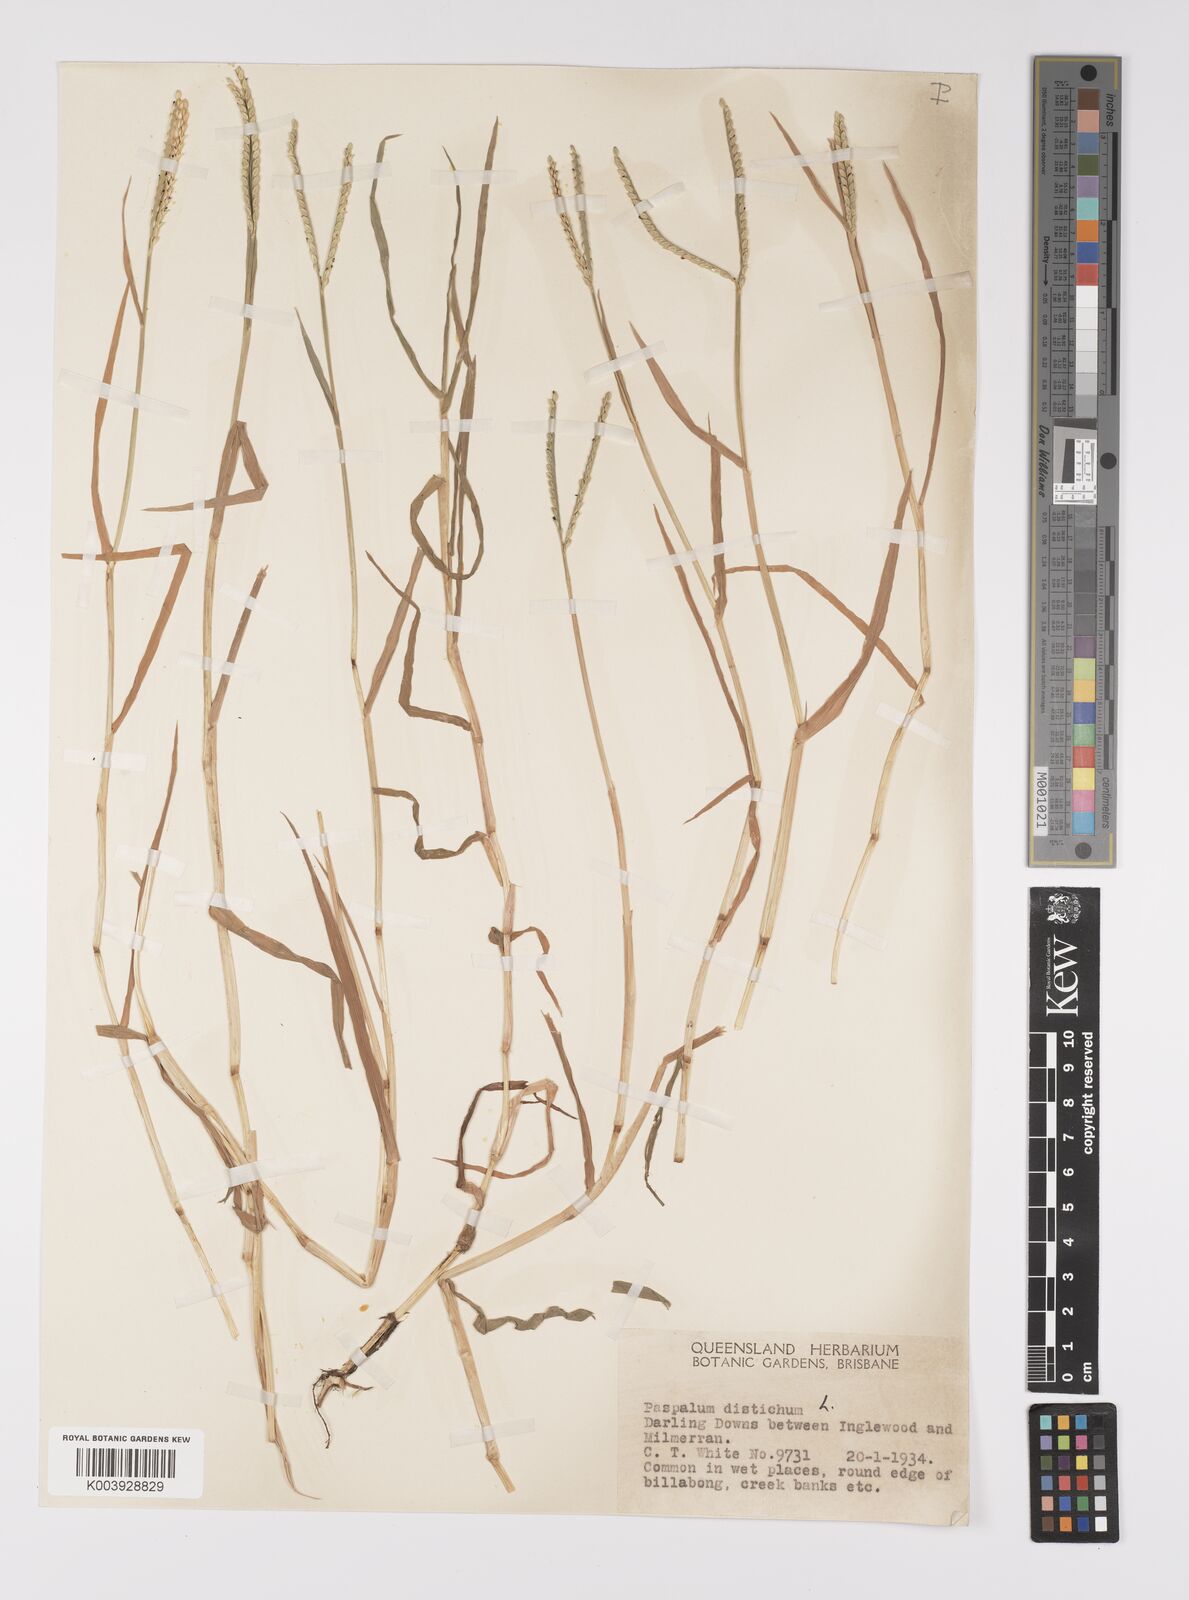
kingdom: Plantae
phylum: Tracheophyta
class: Liliopsida
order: Poales
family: Poaceae
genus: Paspalum
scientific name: Paspalum distichum
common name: Knotgrass
